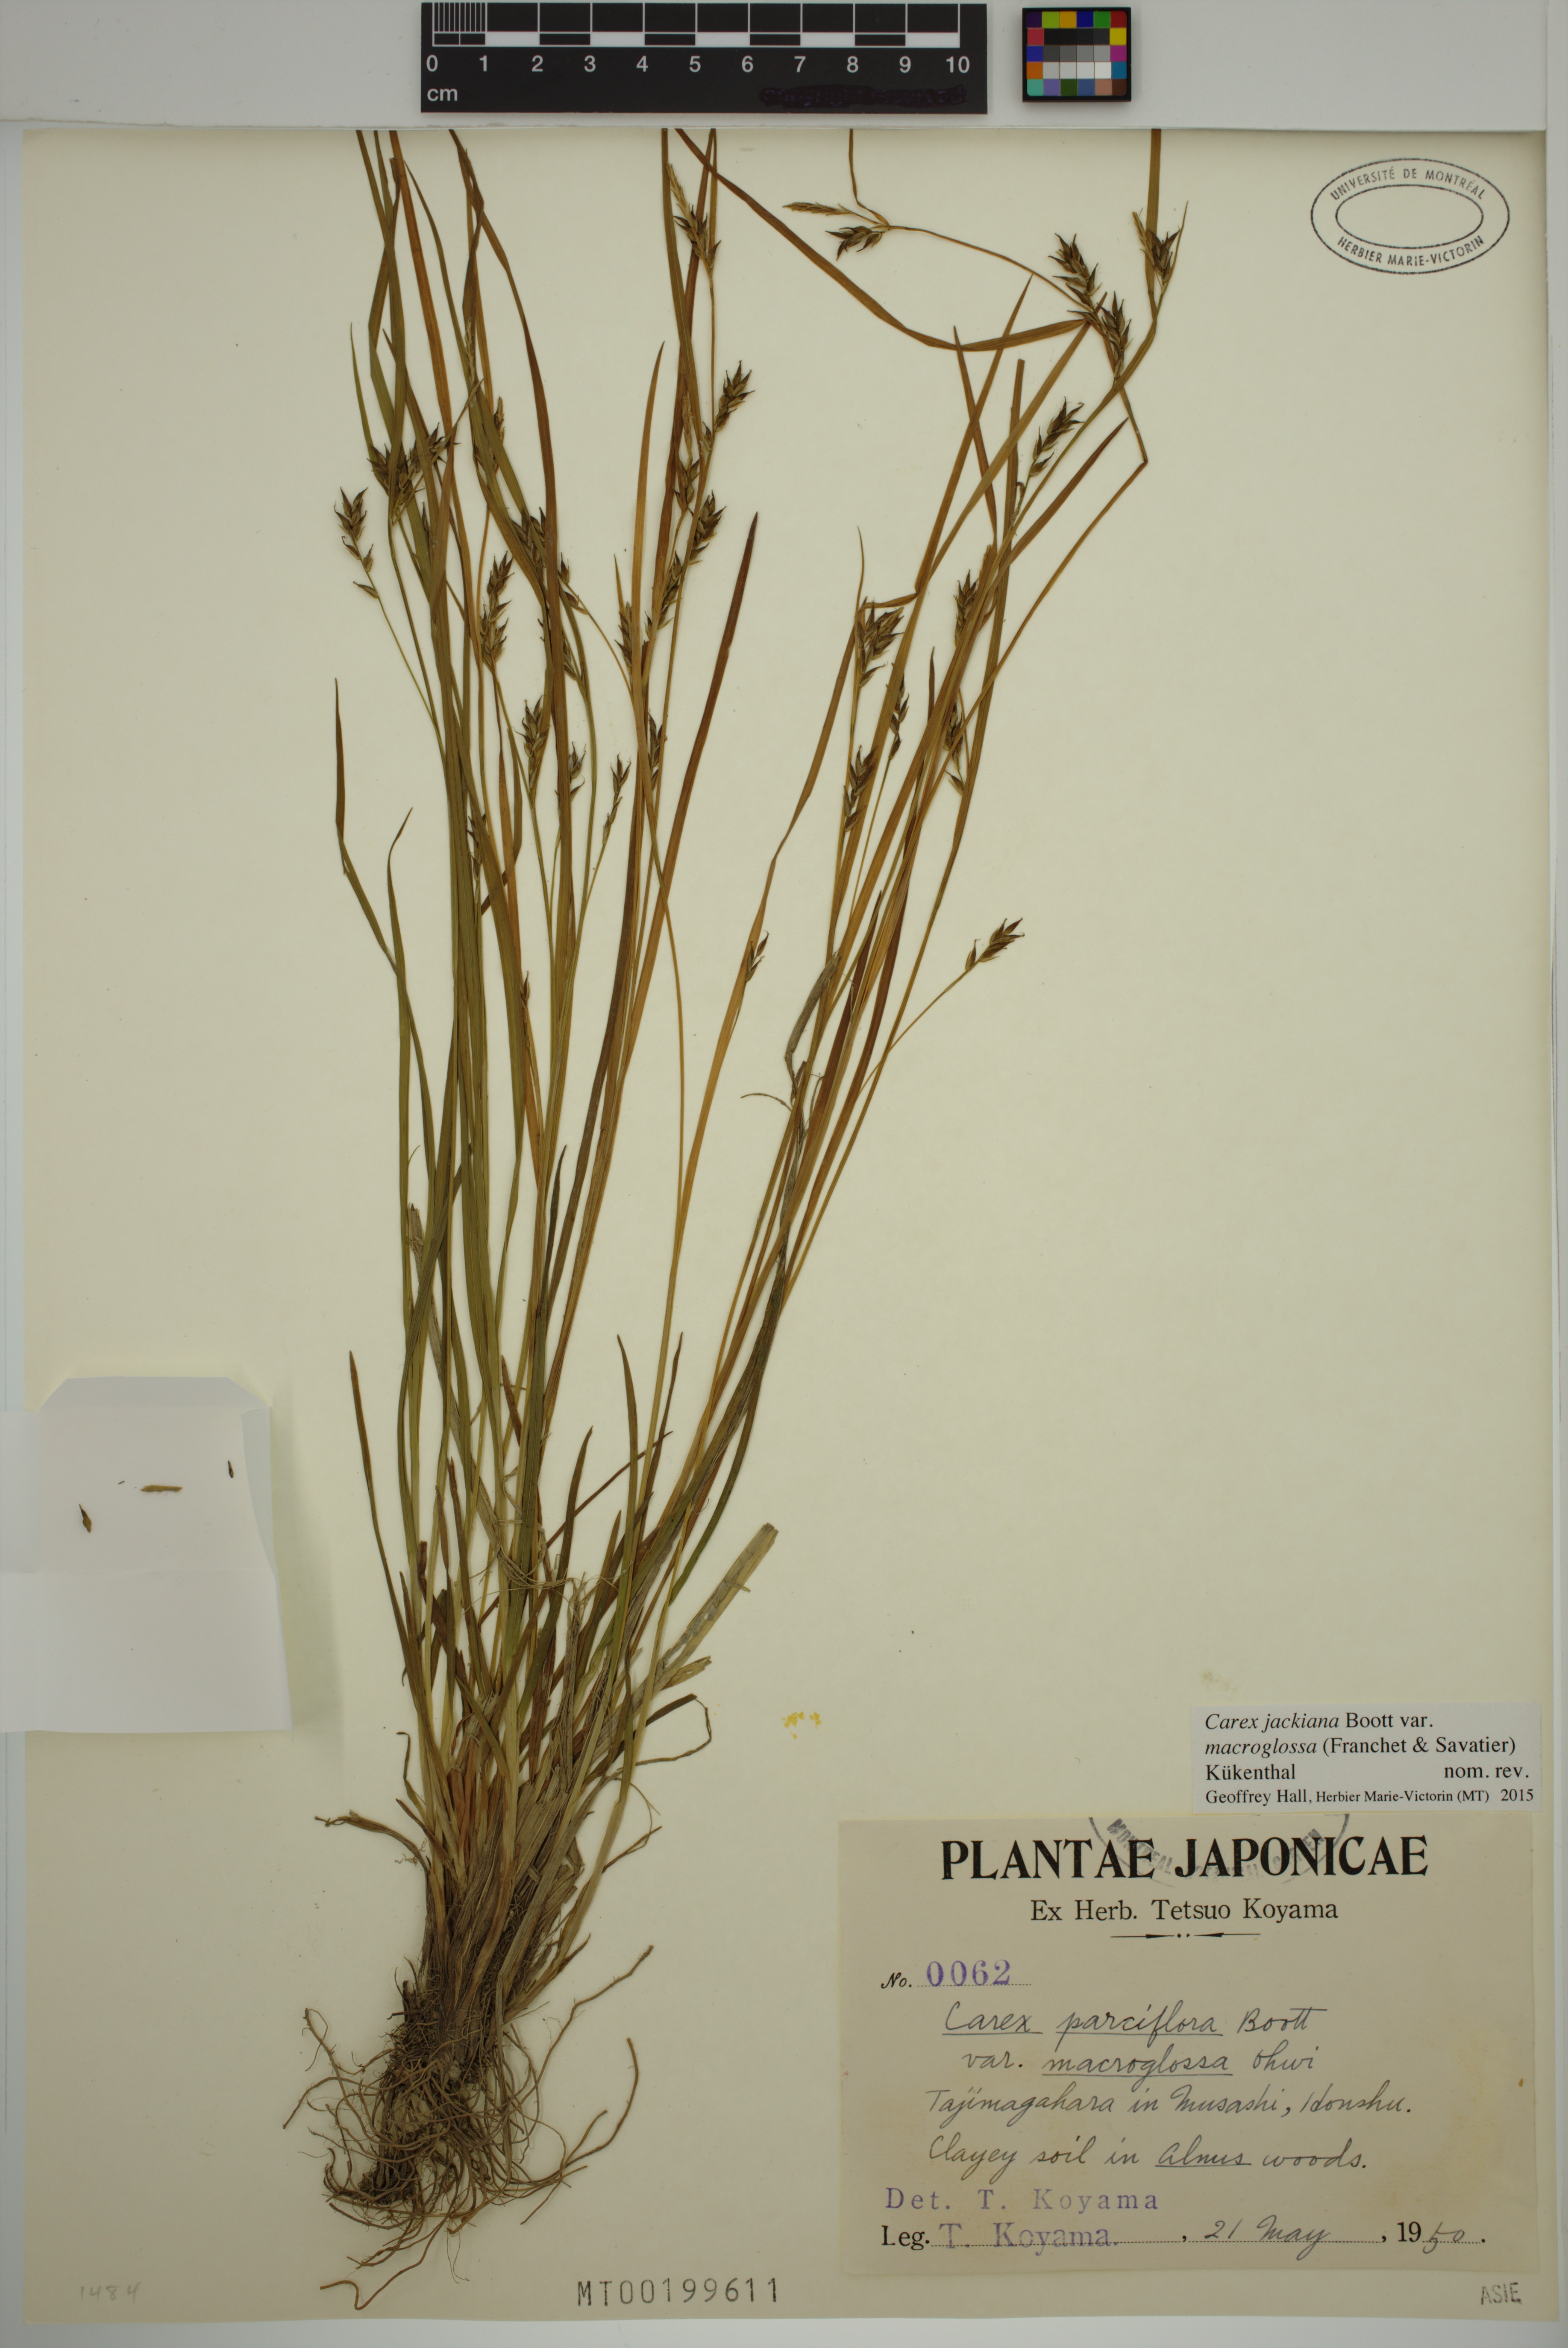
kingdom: Plantae
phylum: Tracheophyta
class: Liliopsida
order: Poales
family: Cyperaceae
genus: Carex
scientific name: Carex macroglossa
